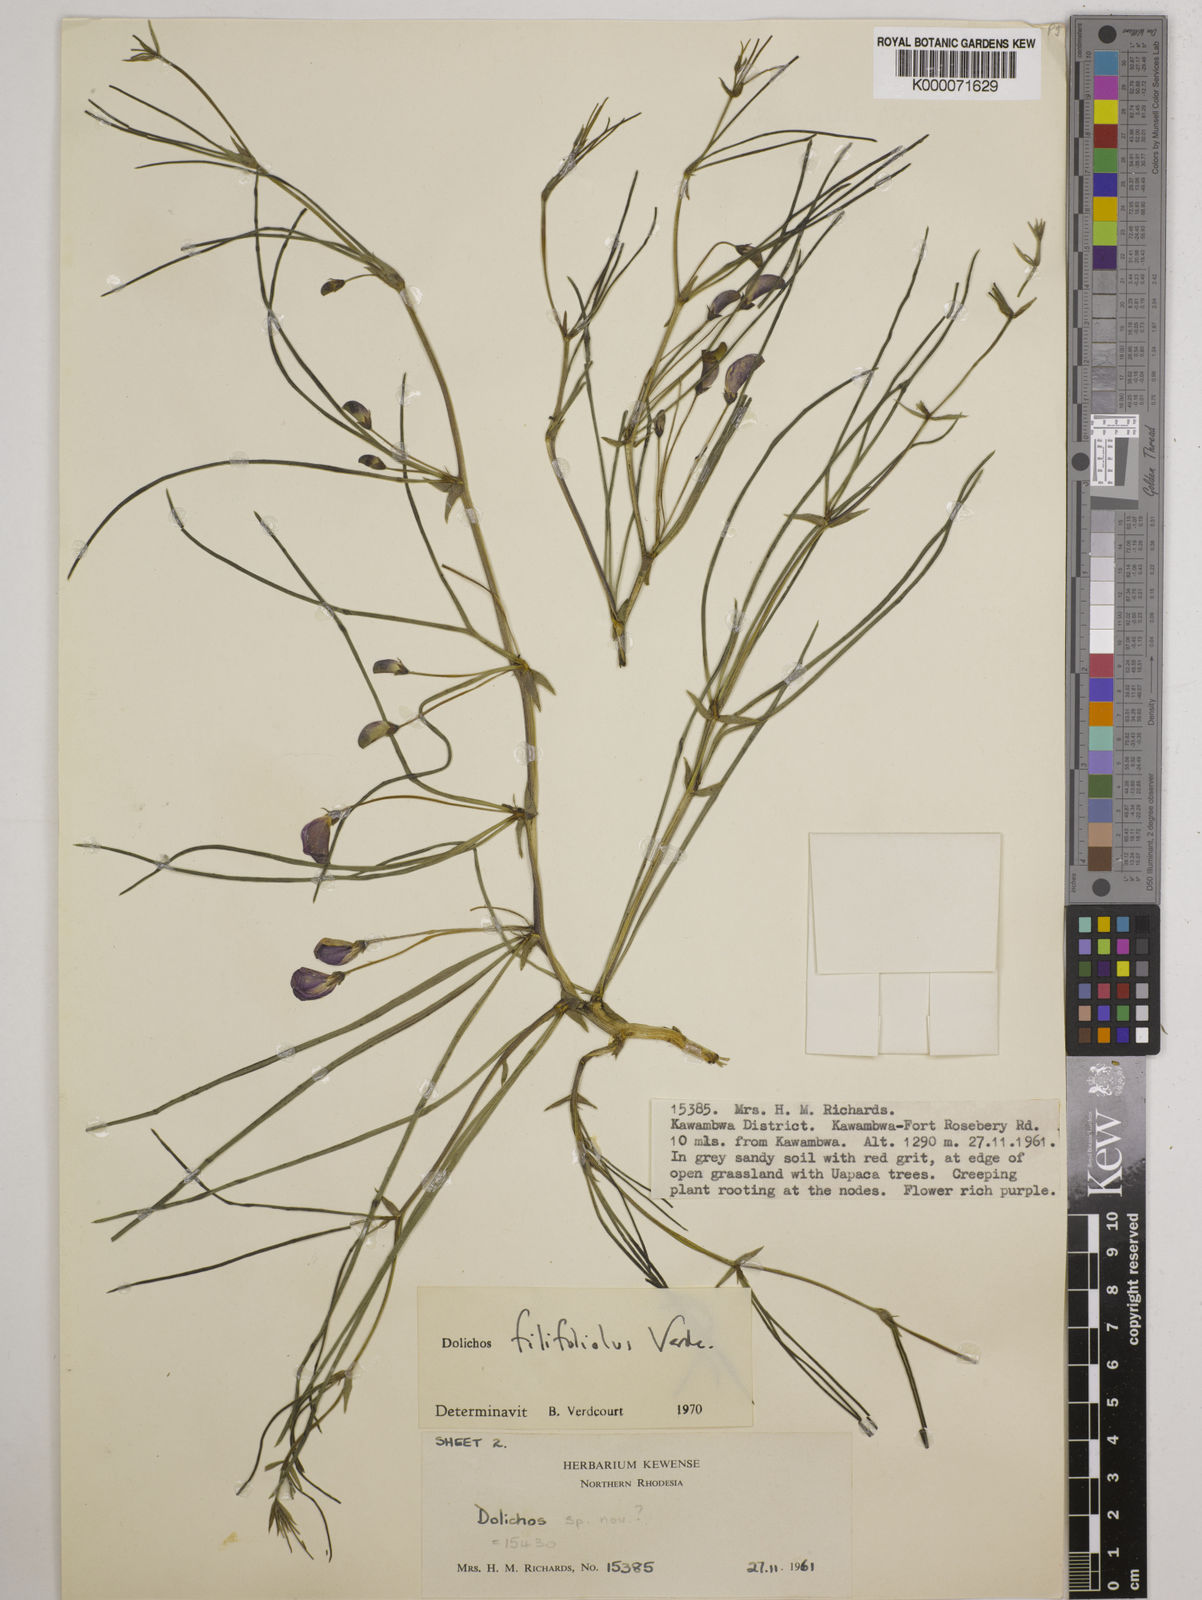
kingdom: Plantae
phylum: Tracheophyta
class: Magnoliopsida
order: Fabales
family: Fabaceae
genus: Dolichos
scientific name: Dolichos filifoliolus
